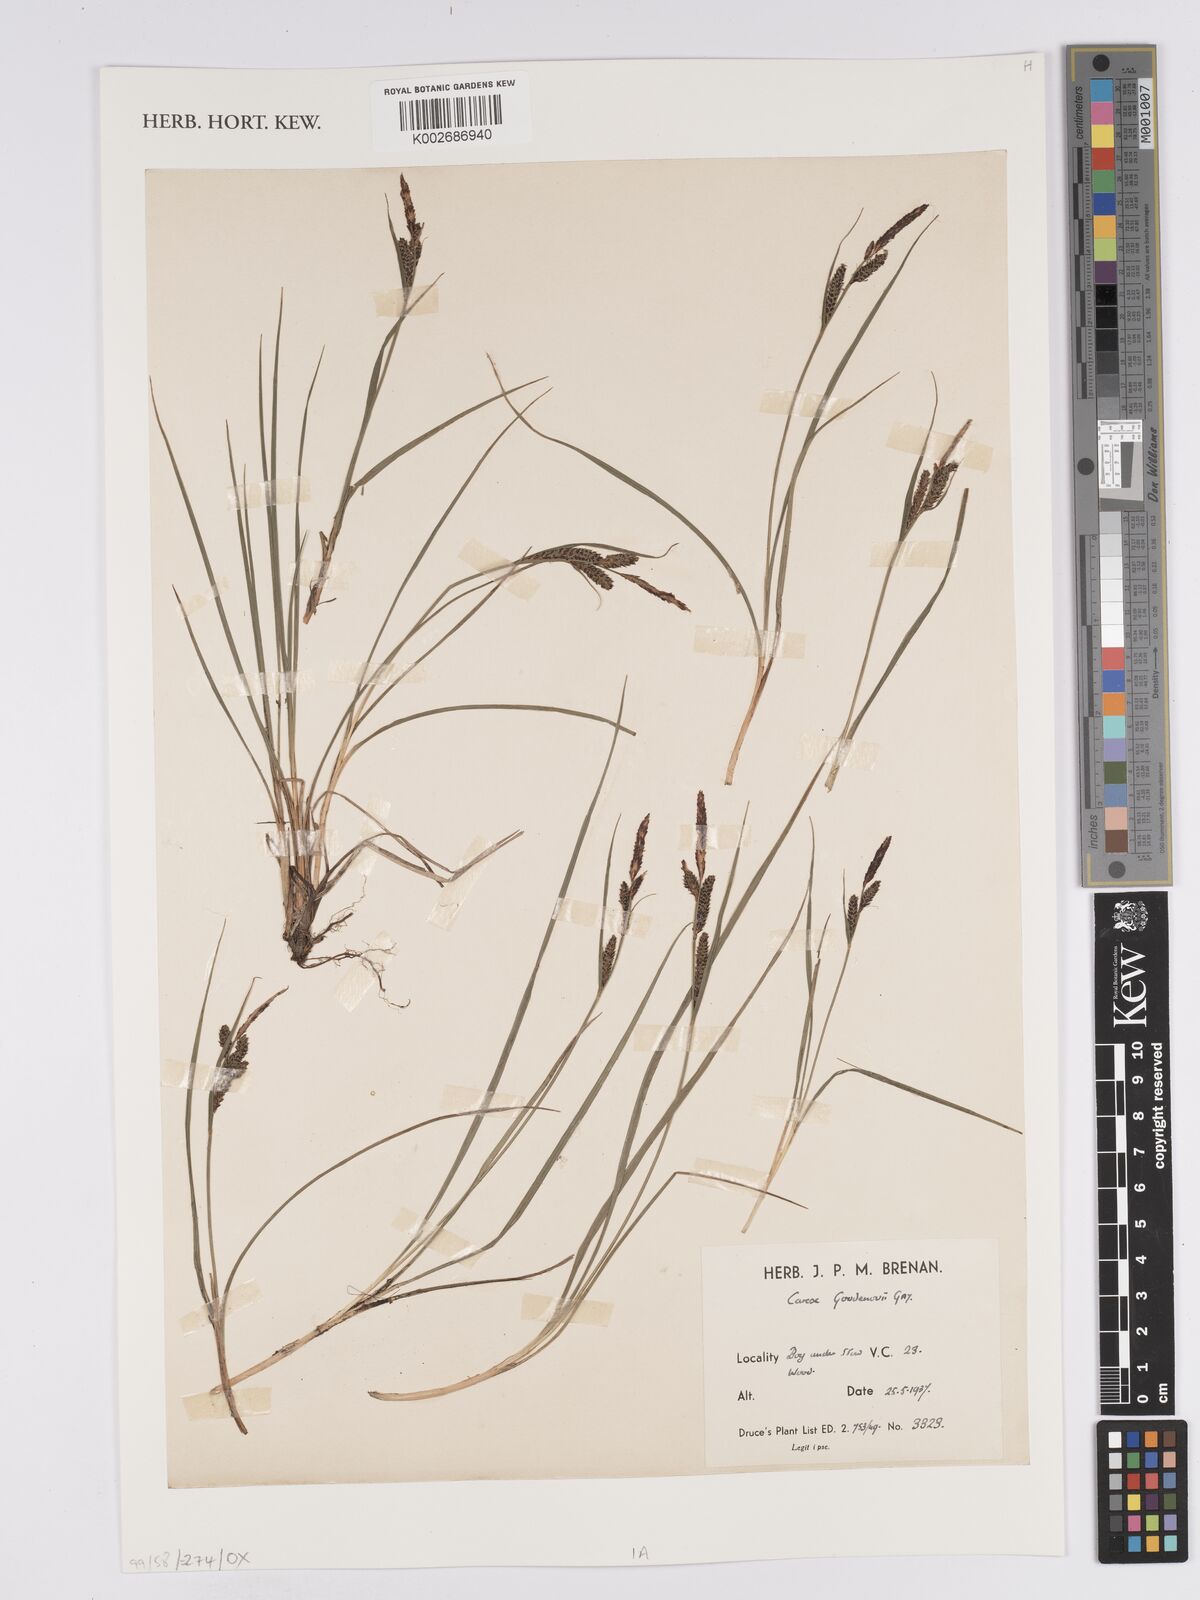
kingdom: Plantae
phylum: Tracheophyta
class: Liliopsida
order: Poales
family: Cyperaceae
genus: Carex
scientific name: Carex nigra
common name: Common sedge
